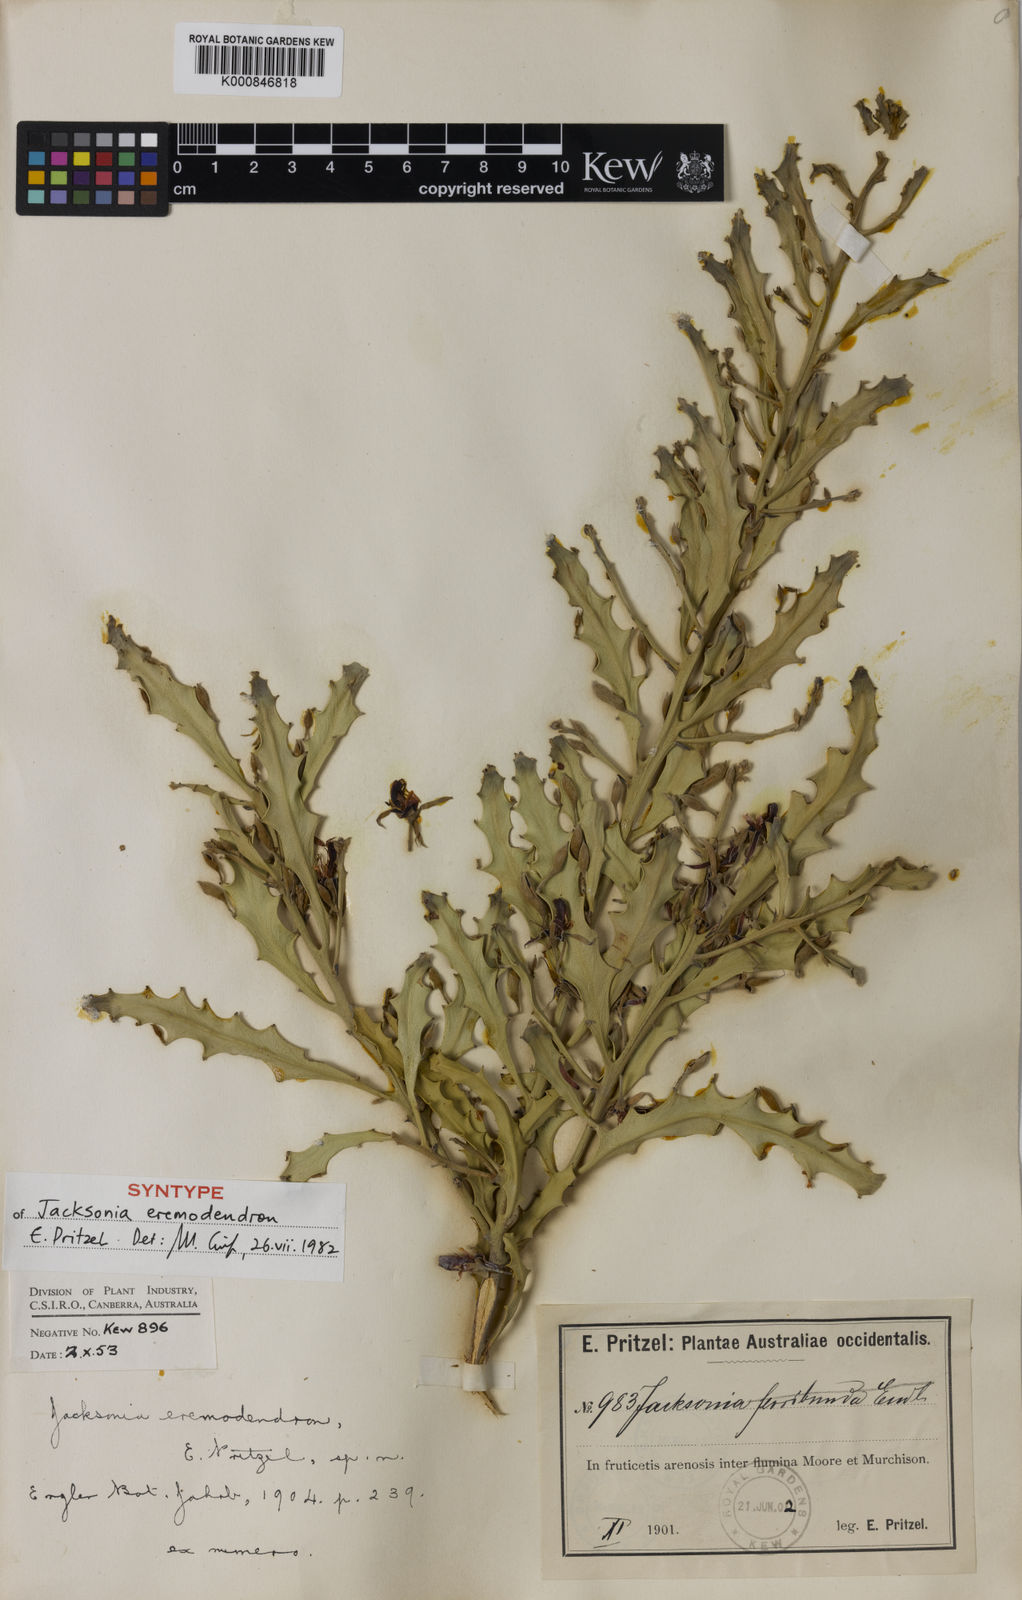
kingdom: Plantae
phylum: Tracheophyta
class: Magnoliopsida
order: Fabales
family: Fabaceae
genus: Jacksonia
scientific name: Jacksonia eremodendron
